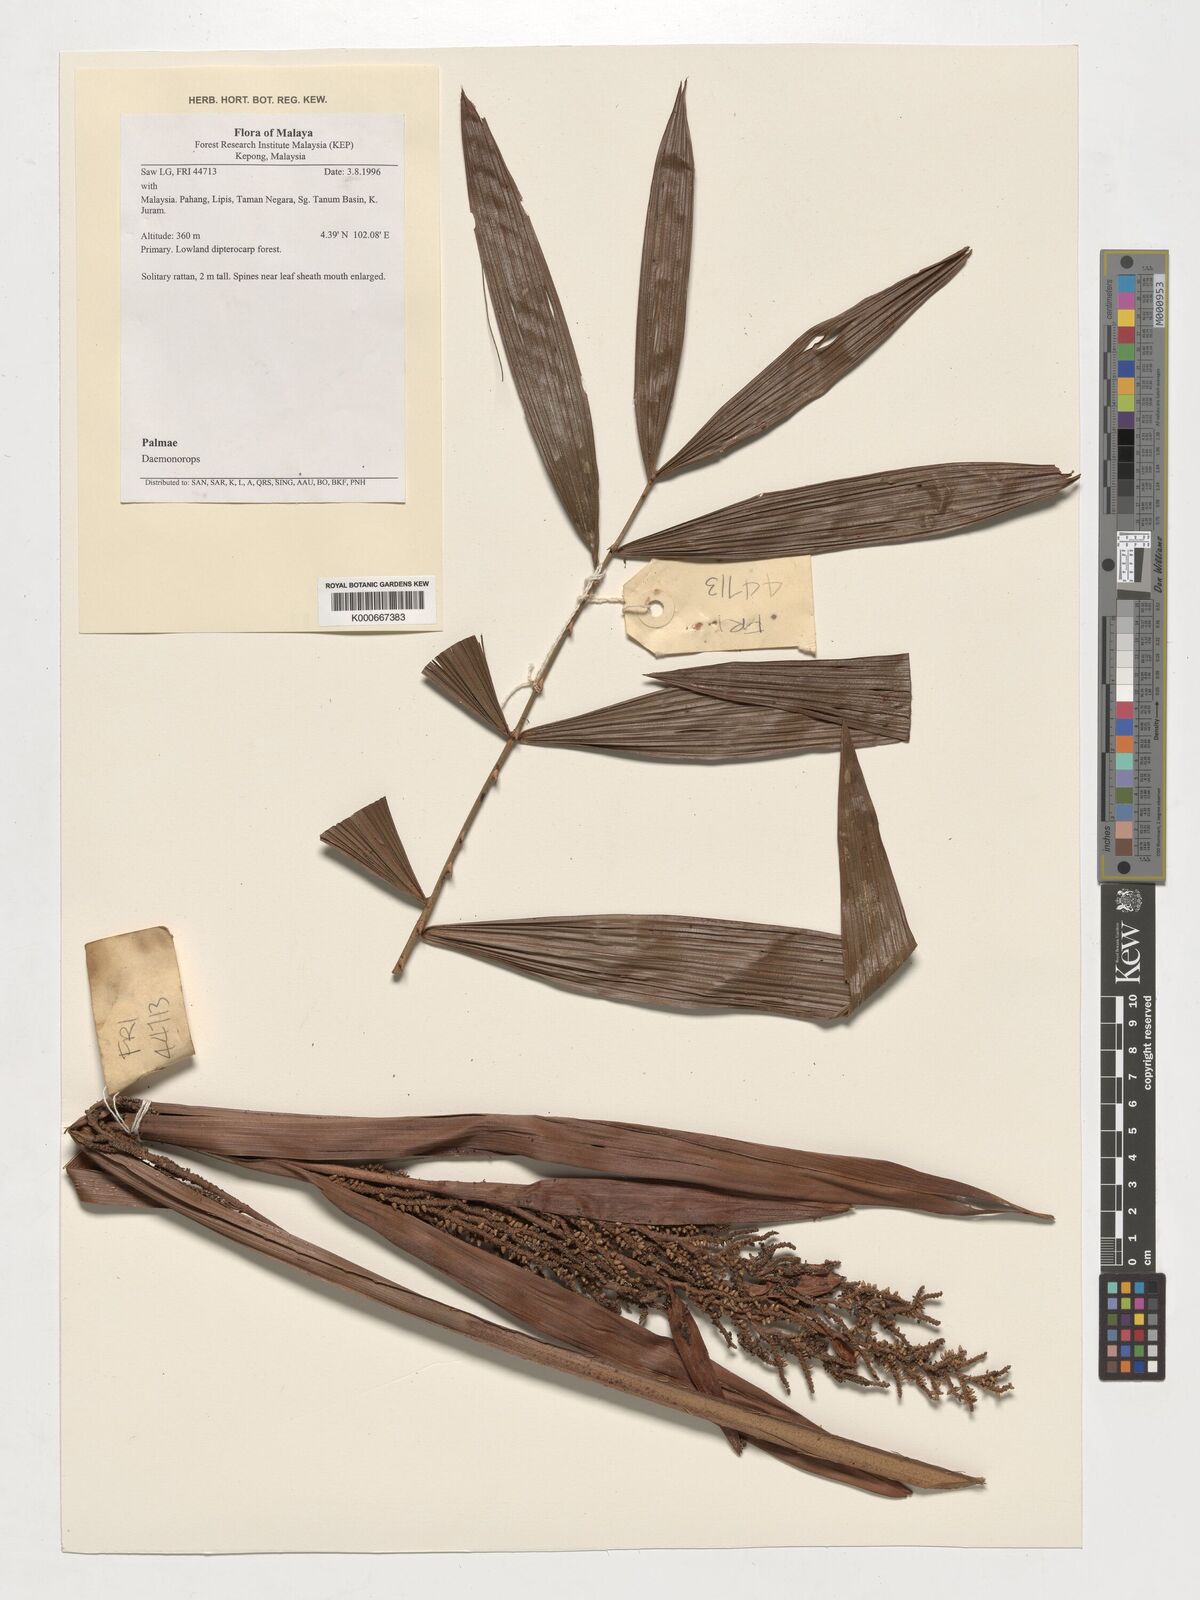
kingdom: Plantae
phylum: Tracheophyta
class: Liliopsida
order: Arecales
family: Arecaceae
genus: Daemonorops
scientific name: Daemonorops
